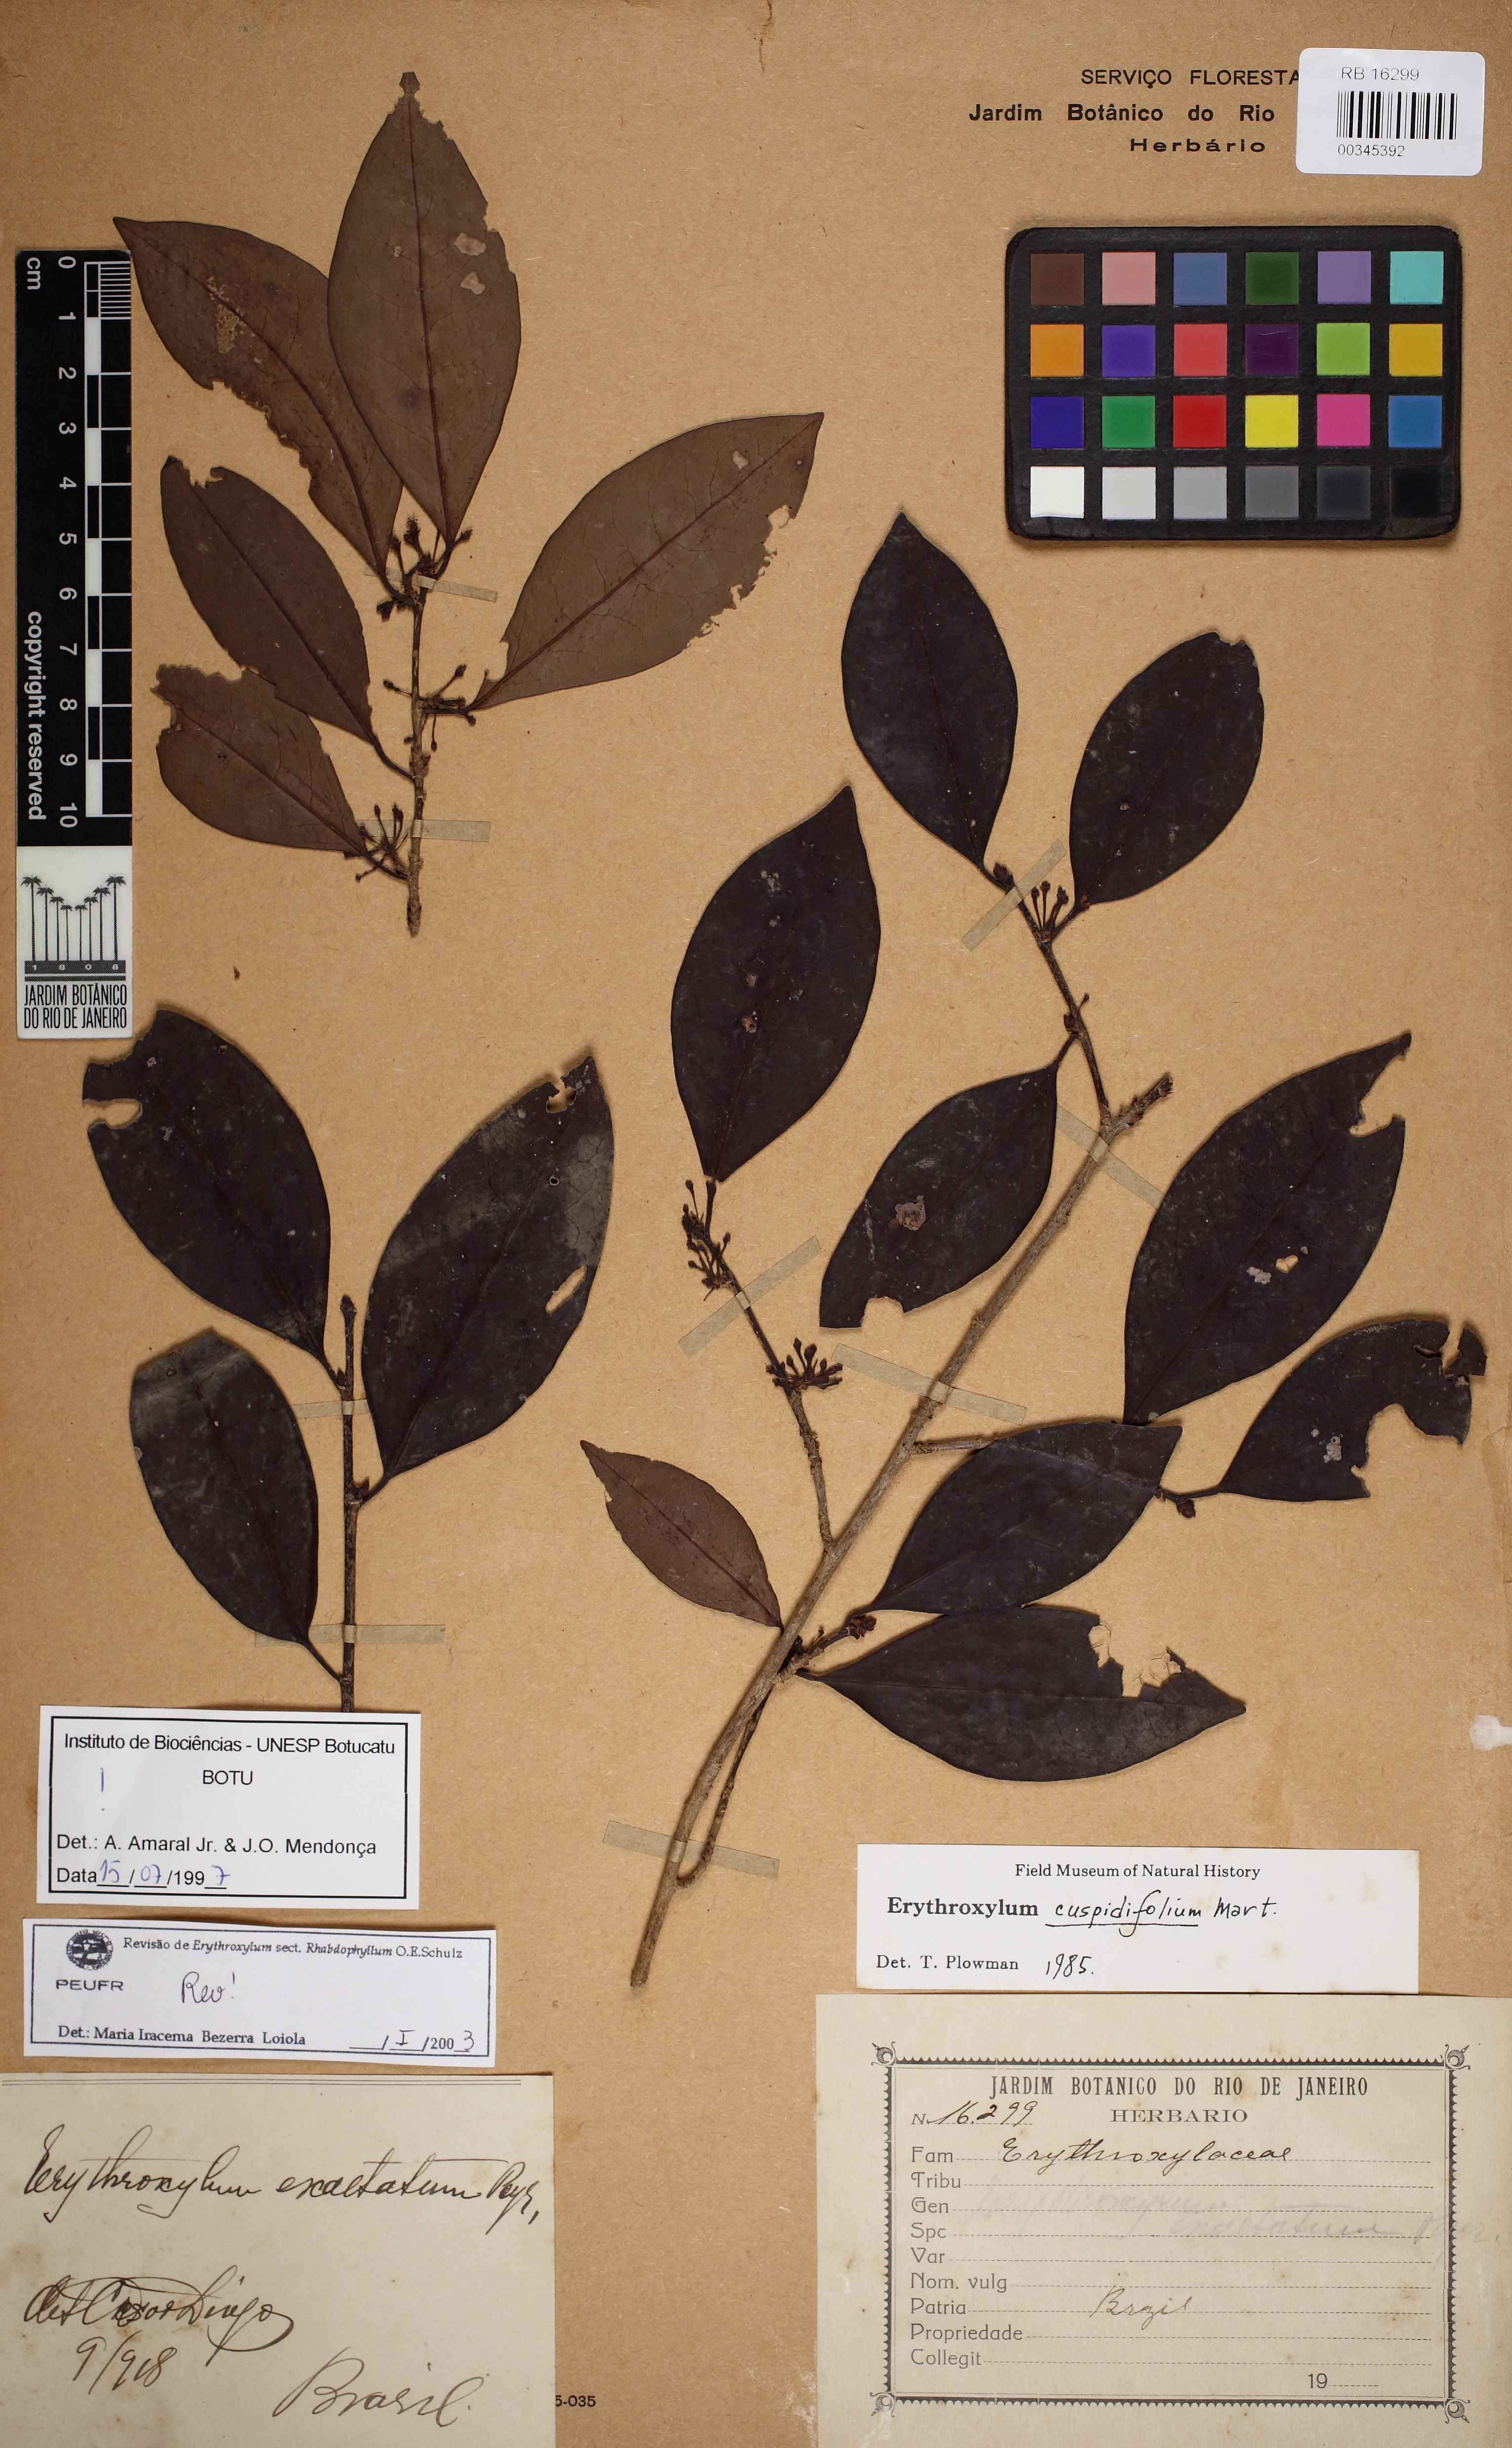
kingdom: Plantae
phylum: Tracheophyta
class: Magnoliopsida
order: Malpighiales
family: Erythroxylaceae
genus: Erythroxylum
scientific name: Erythroxylum cuspidifolium
